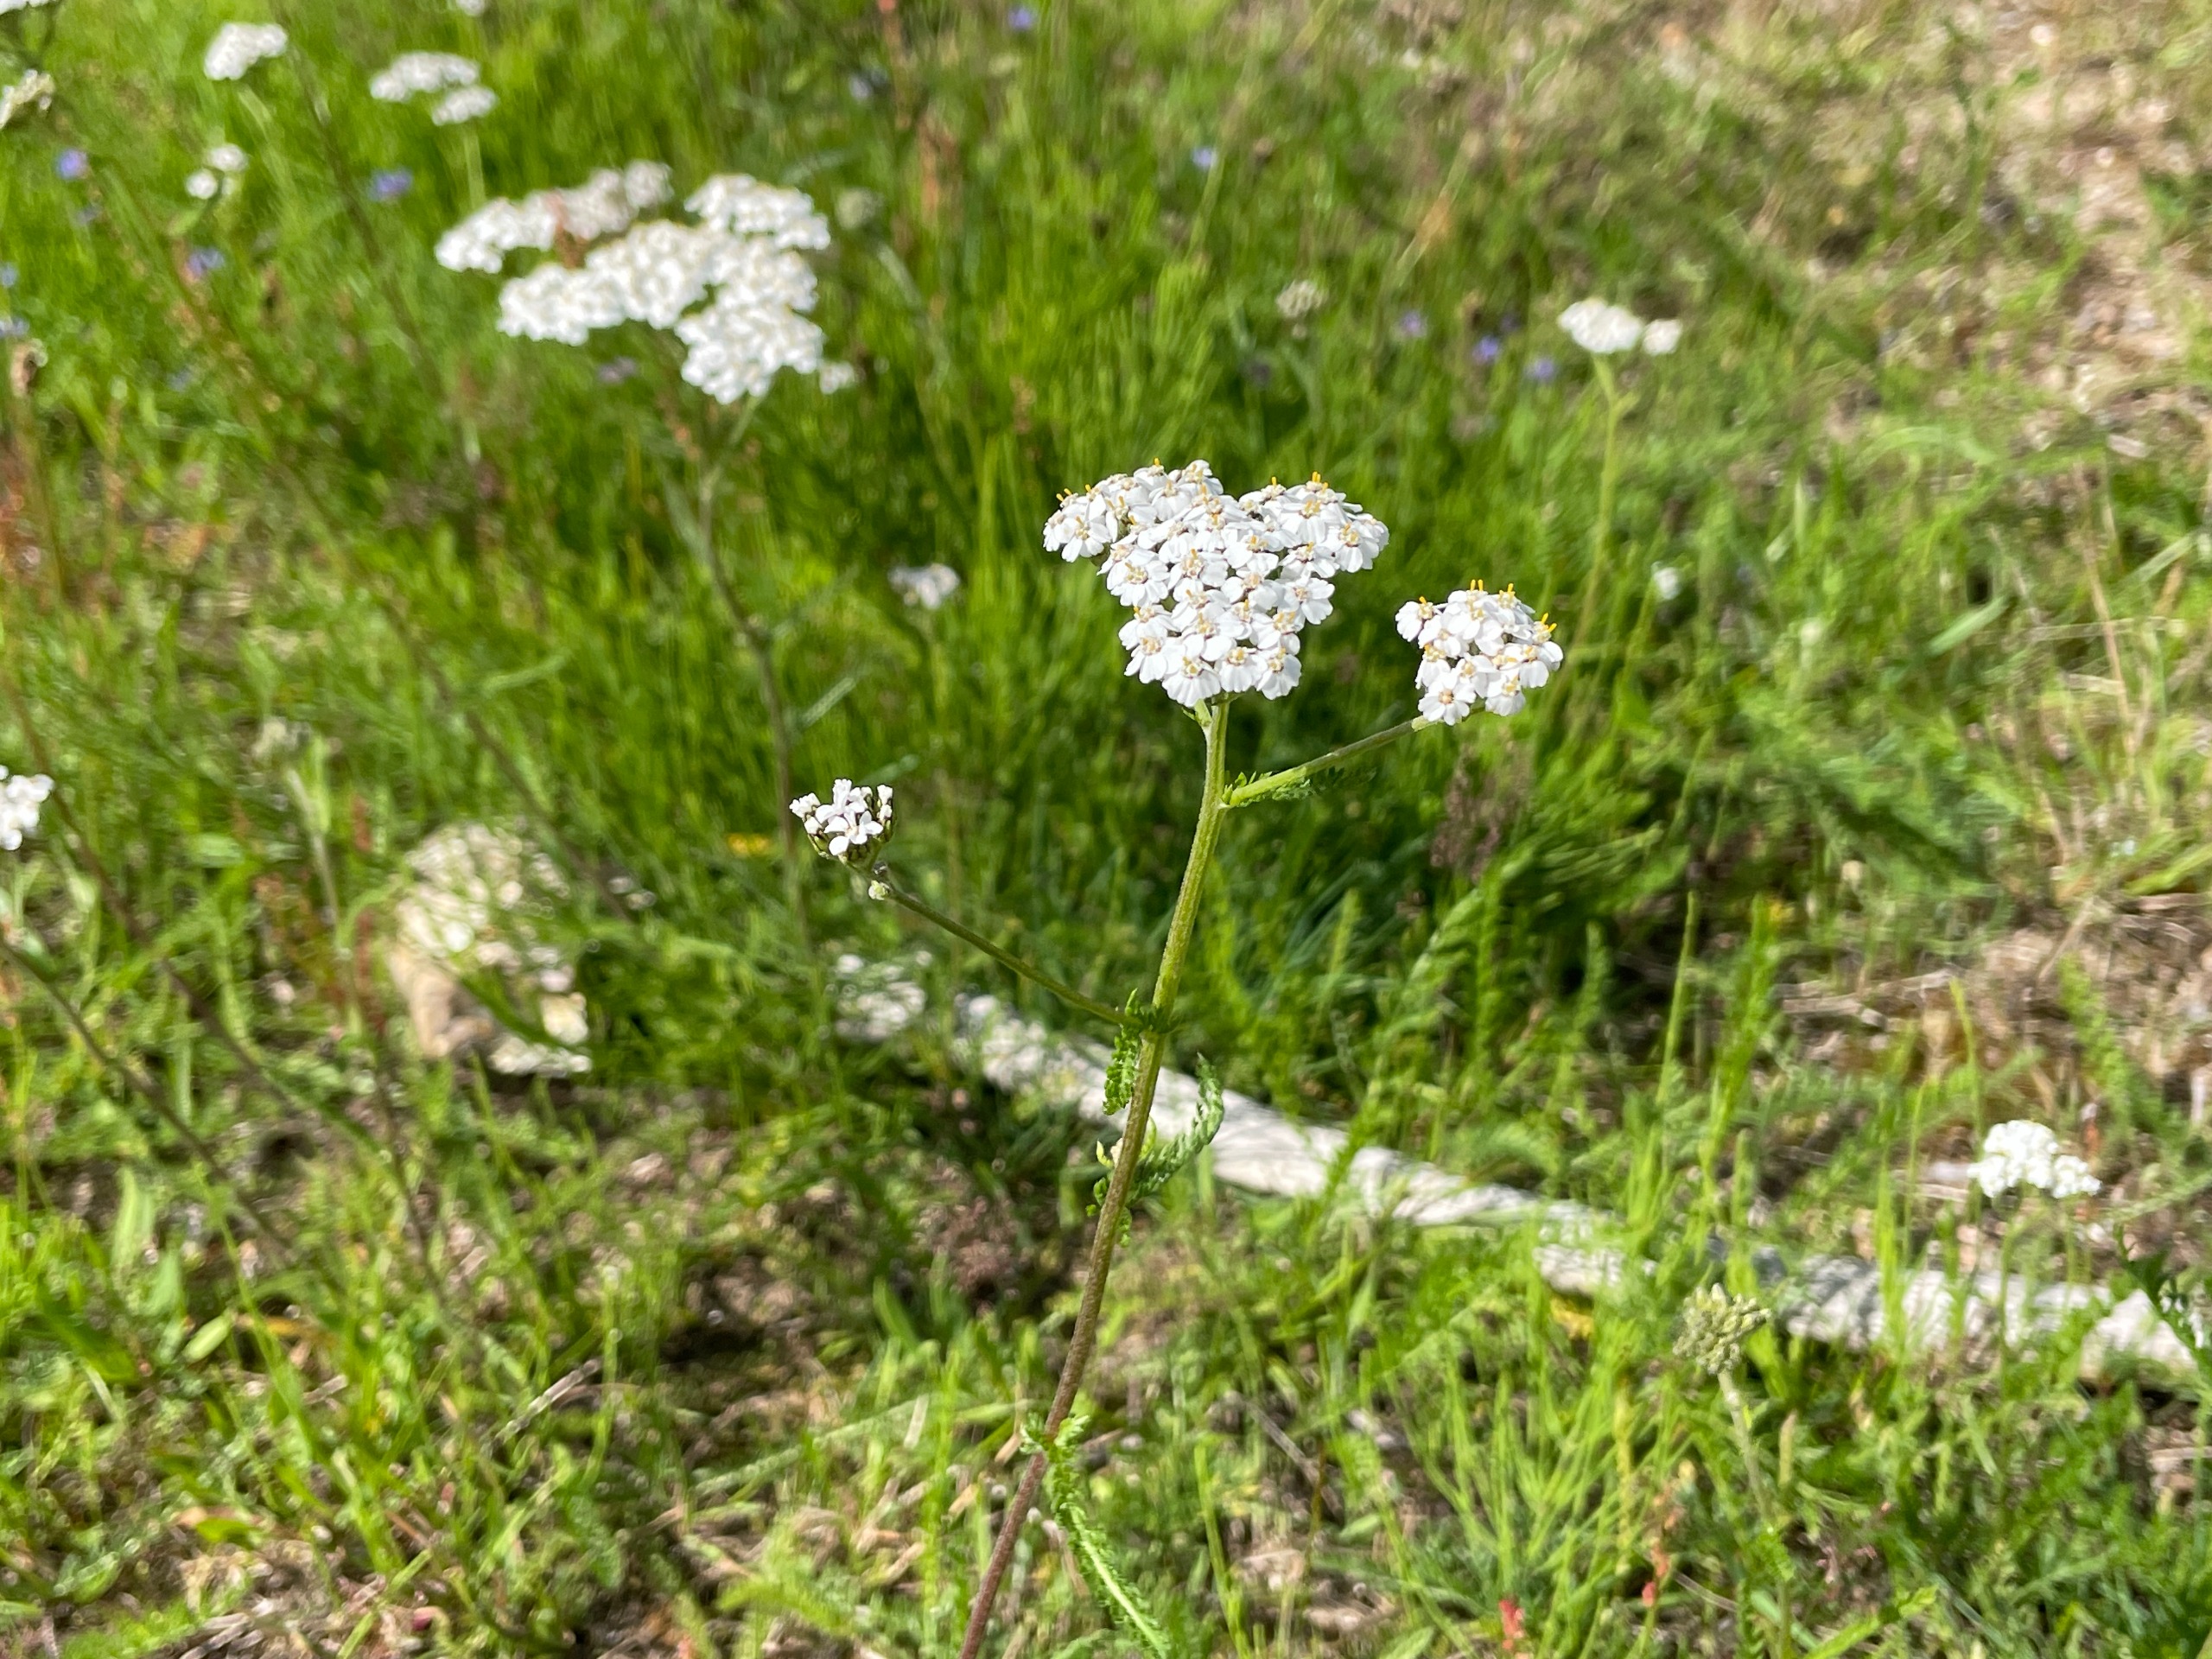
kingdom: Plantae
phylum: Tracheophyta
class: Magnoliopsida
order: Asterales
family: Asteraceae
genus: Achillea
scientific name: Achillea millefolium
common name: Almindelig røllike
